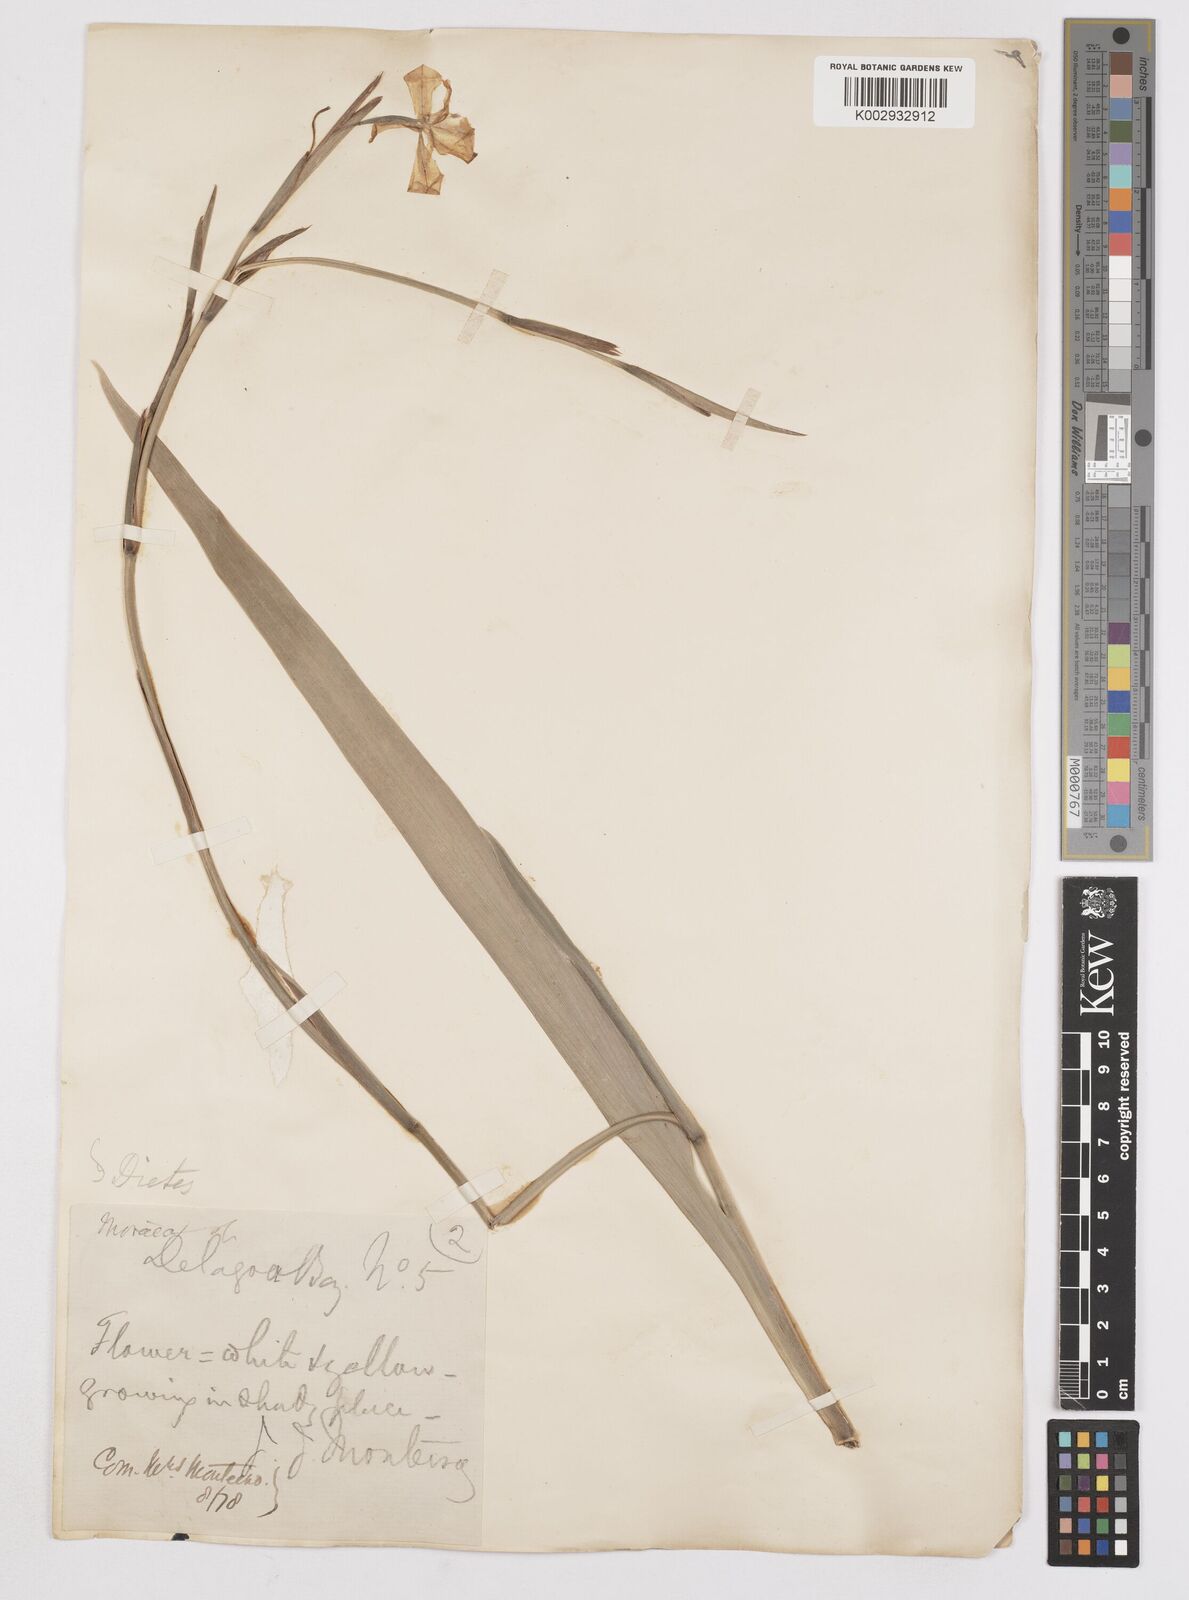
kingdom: Plantae
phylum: Tracheophyta
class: Liliopsida
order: Asparagales
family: Iridaceae
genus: Dietes
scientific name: Dietes iridioides
